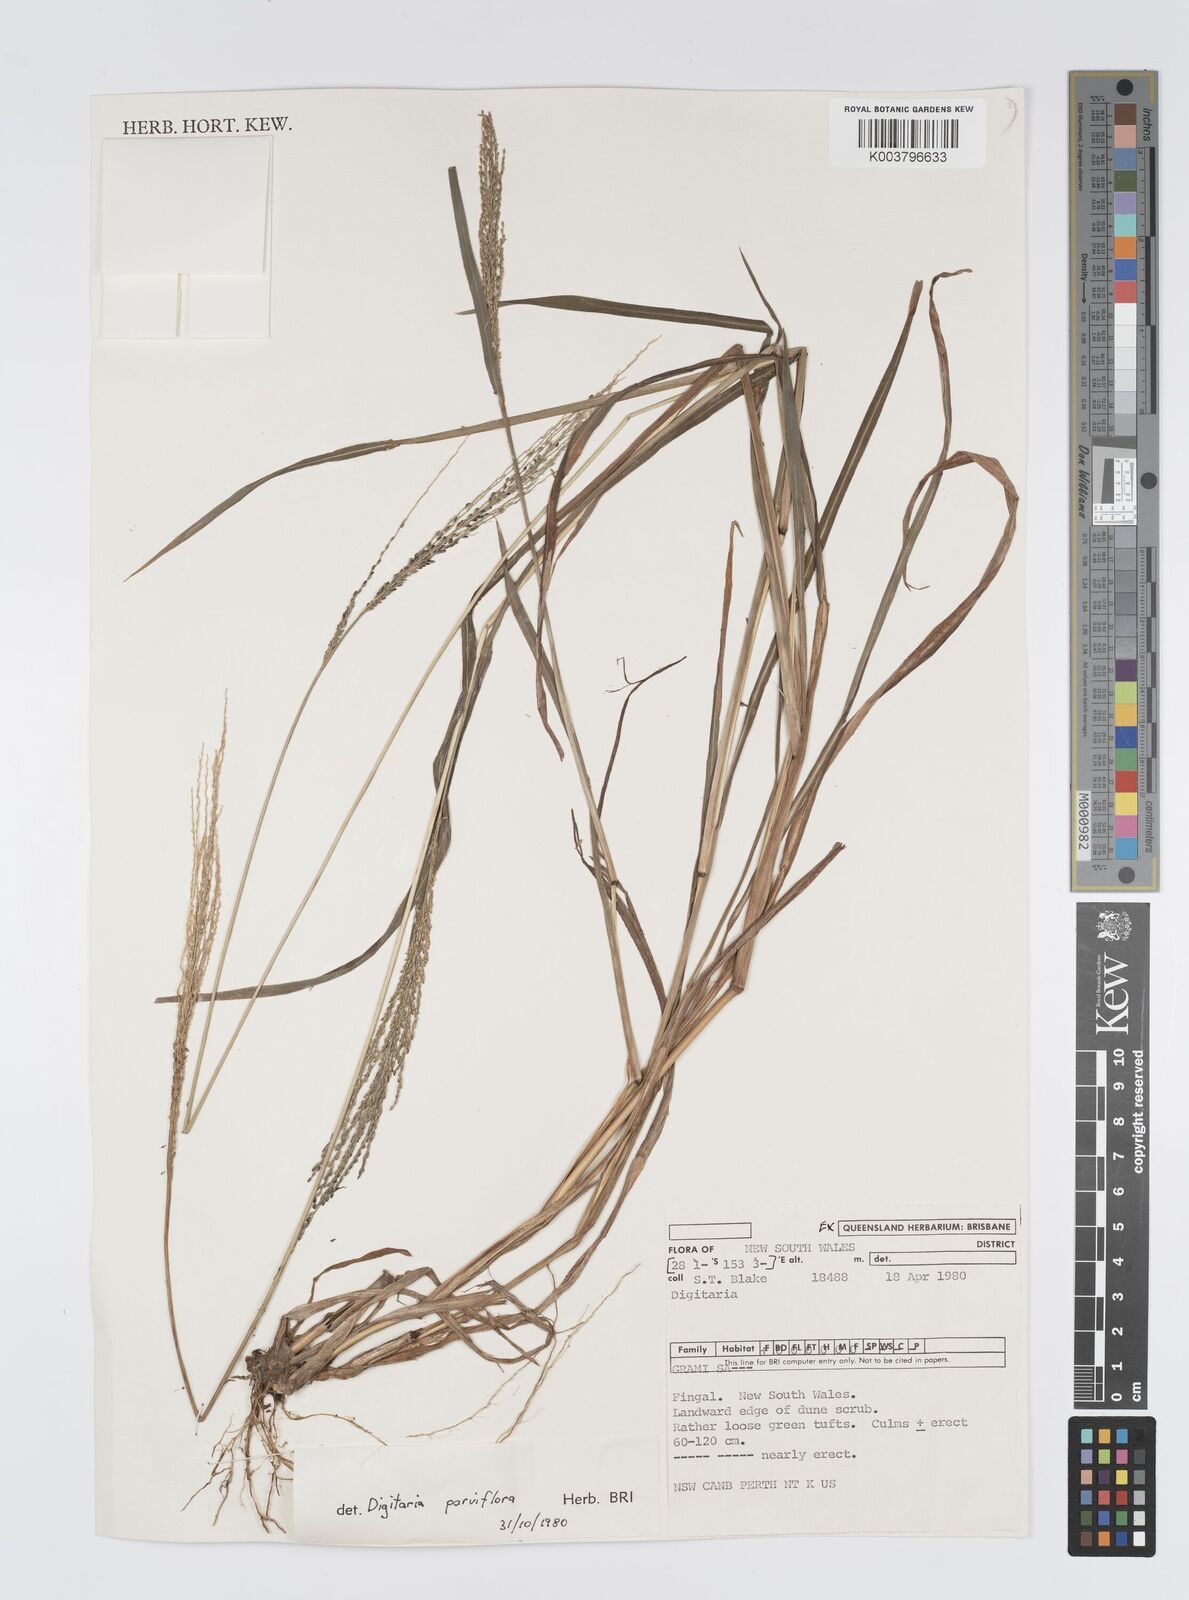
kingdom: Plantae
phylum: Tracheophyta
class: Liliopsida
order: Poales
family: Poaceae
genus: Digitaria
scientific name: Digitaria parviflora
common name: Small-flower finger grass
